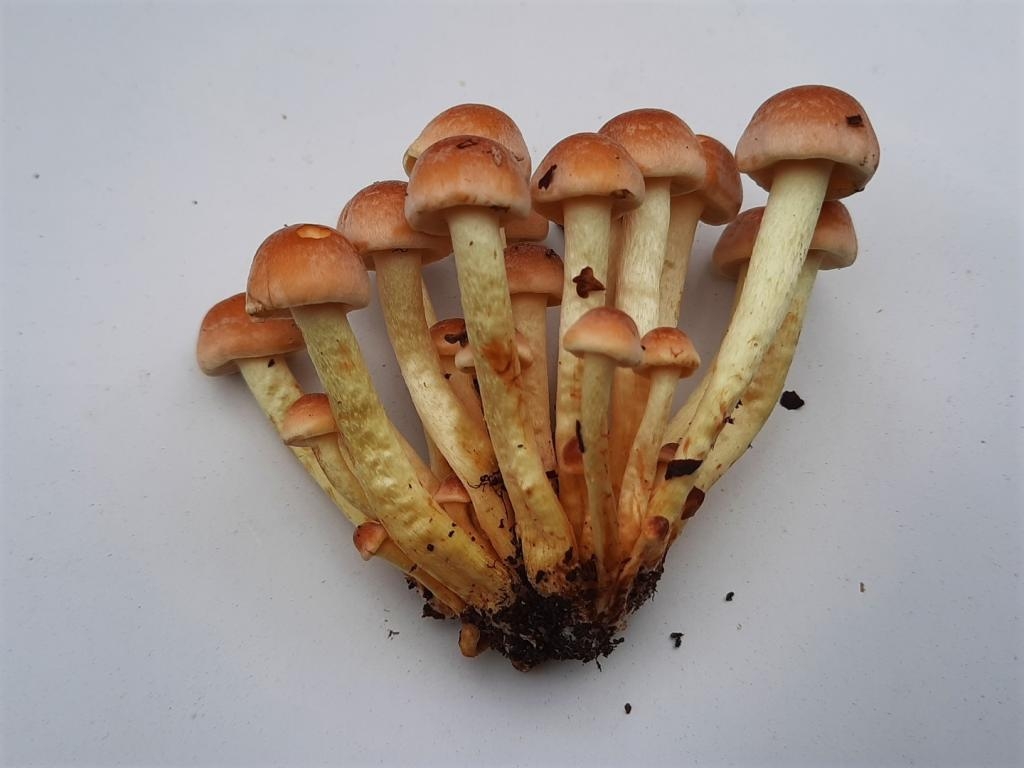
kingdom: Fungi
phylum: Basidiomycota
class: Agaricomycetes
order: Agaricales
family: Strophariaceae
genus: Hypholoma
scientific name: Hypholoma fasciculare
